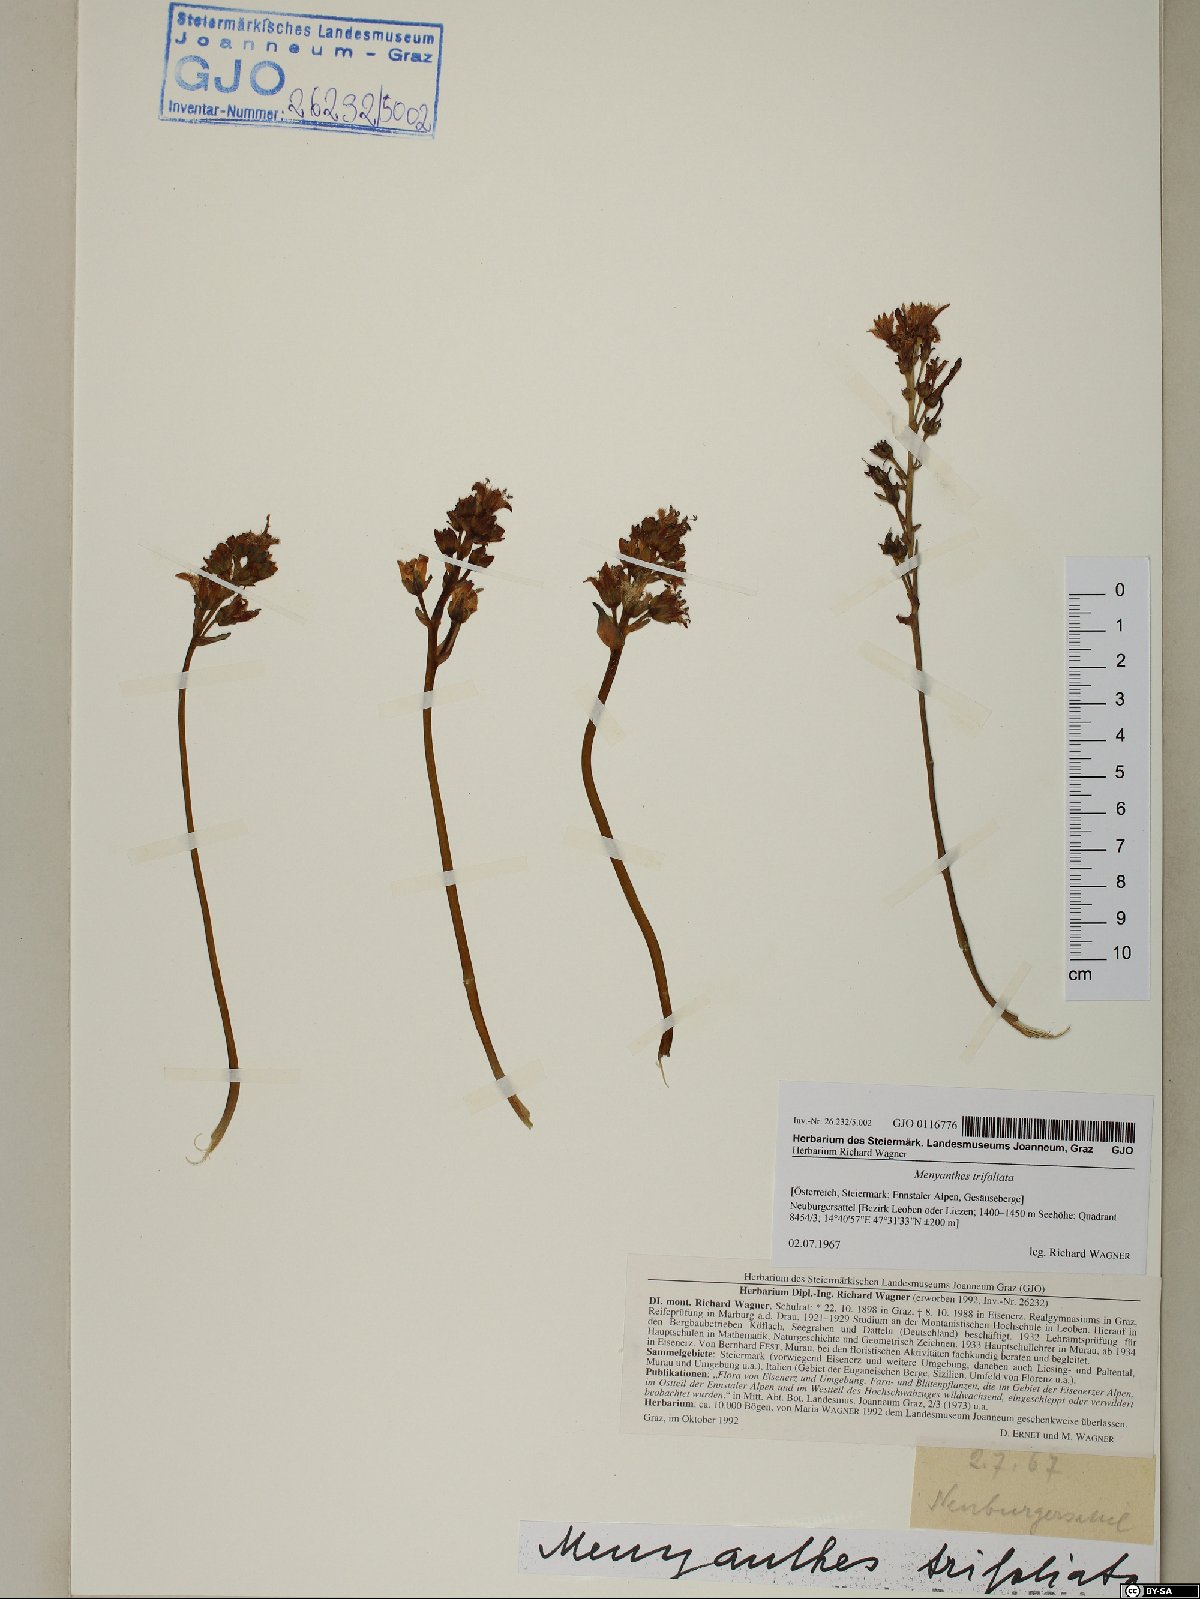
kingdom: Plantae
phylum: Tracheophyta
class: Magnoliopsida
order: Asterales
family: Menyanthaceae
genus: Menyanthes
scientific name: Menyanthes trifoliata
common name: Bogbean
